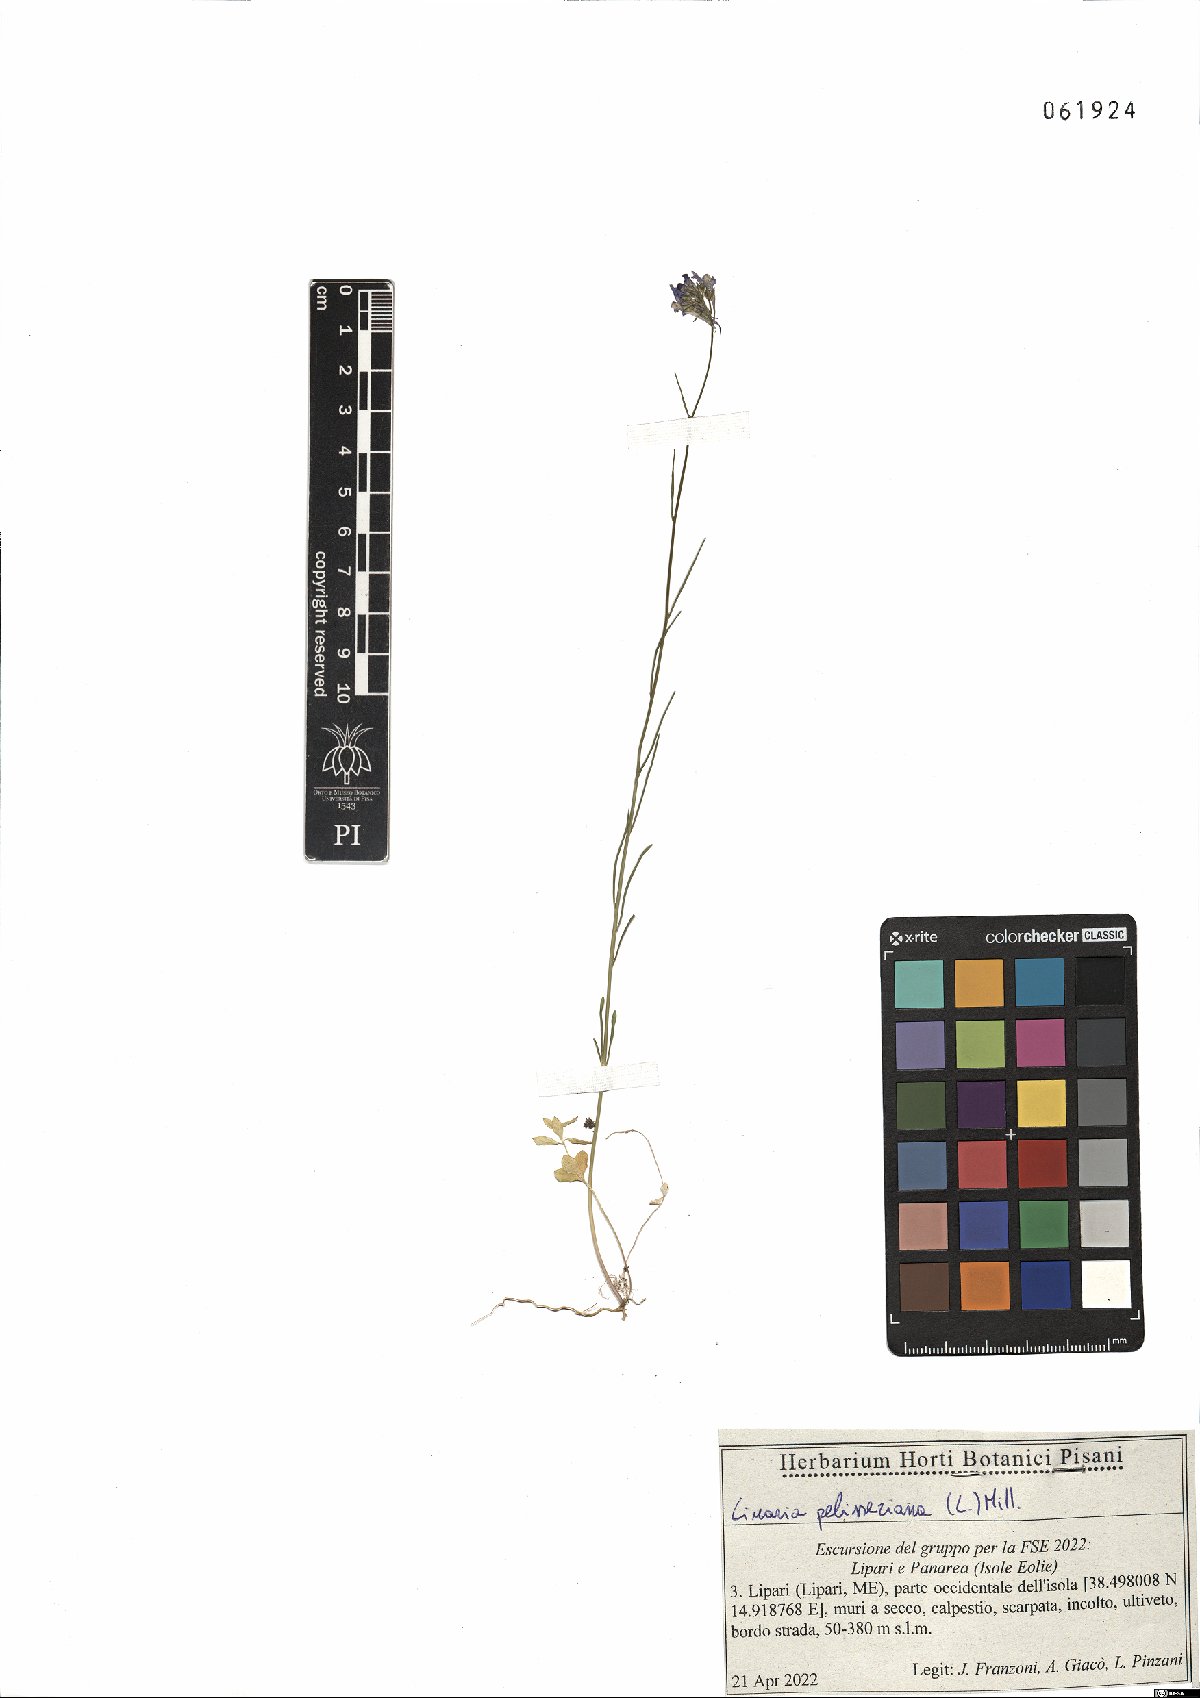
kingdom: Plantae
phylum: Tracheophyta
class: Magnoliopsida
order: Lamiales
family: Plantaginaceae
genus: Linaria
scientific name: Linaria pelisseriana
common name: Jersey toadflax
